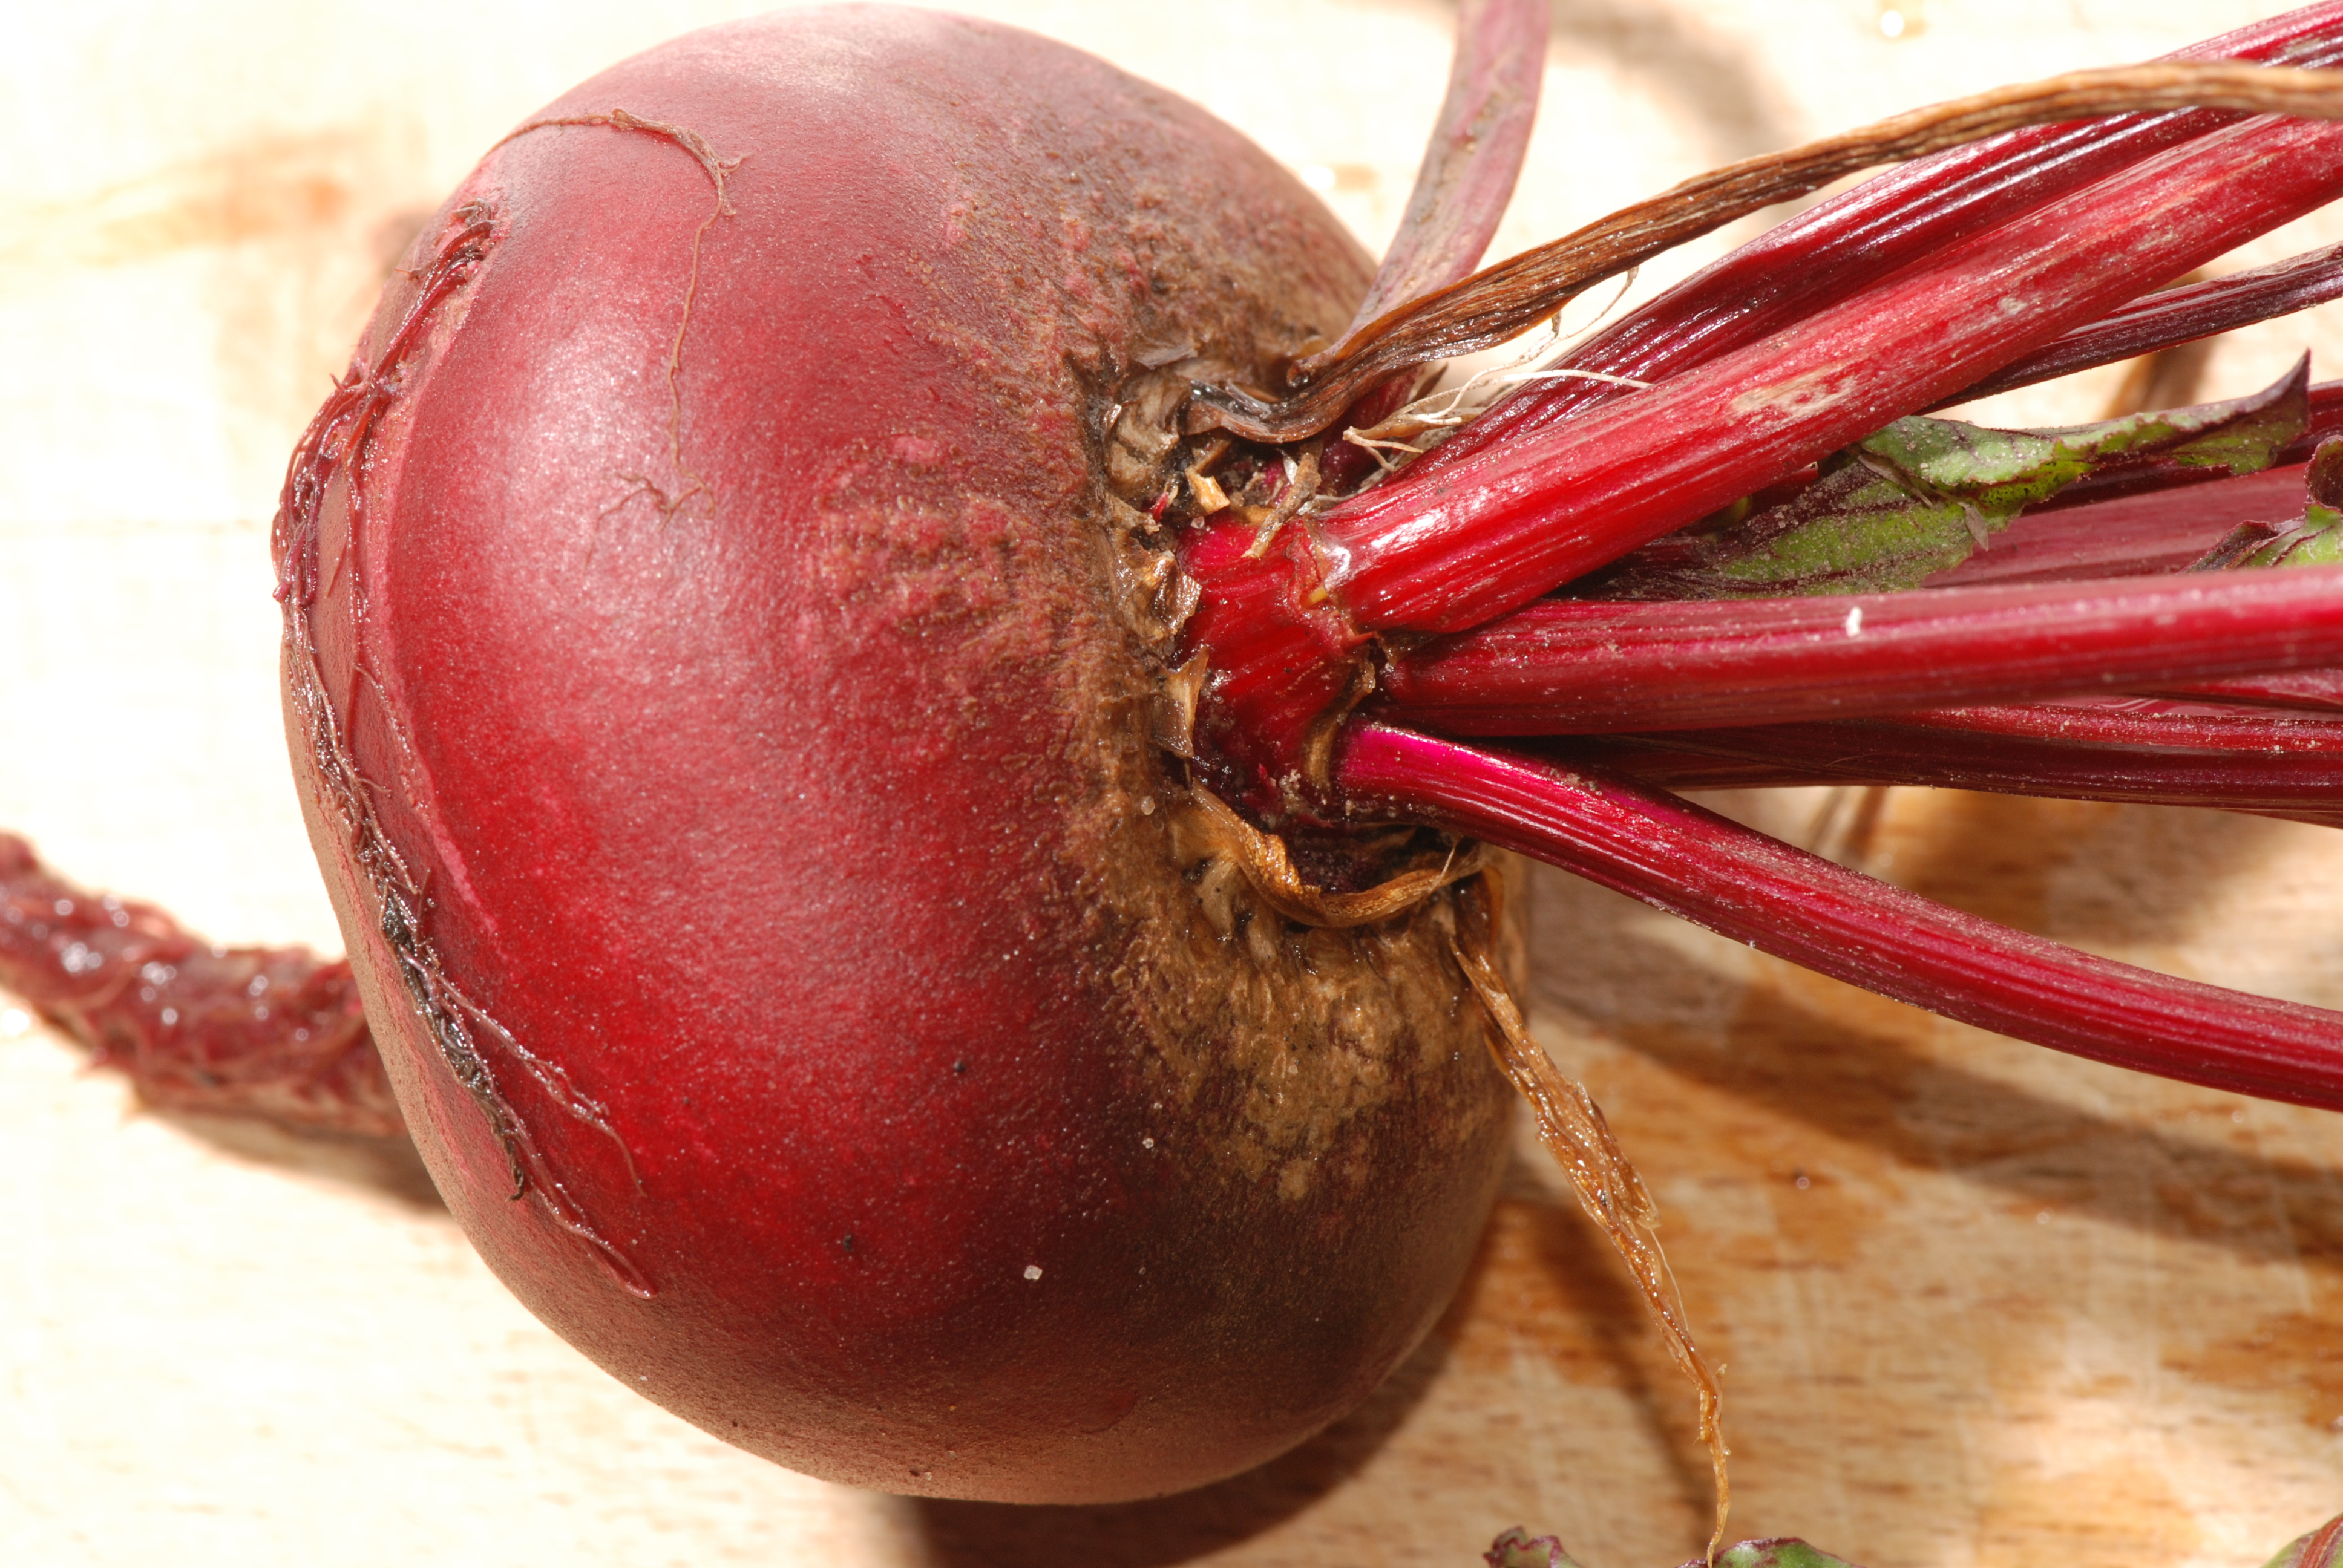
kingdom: Plantae
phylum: Tracheophyta
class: Magnoliopsida
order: Caryophyllales
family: Amaranthaceae
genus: Beta
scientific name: Beta vulgaris
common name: Beet
